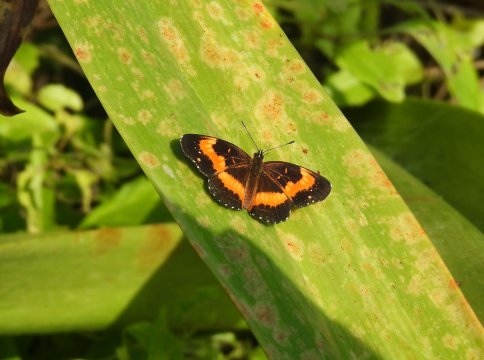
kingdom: Animalia
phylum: Arthropoda
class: Insecta
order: Lepidoptera
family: Nymphalidae
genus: Chlosyne
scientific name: Chlosyne lacinia
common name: Bordered Patch
